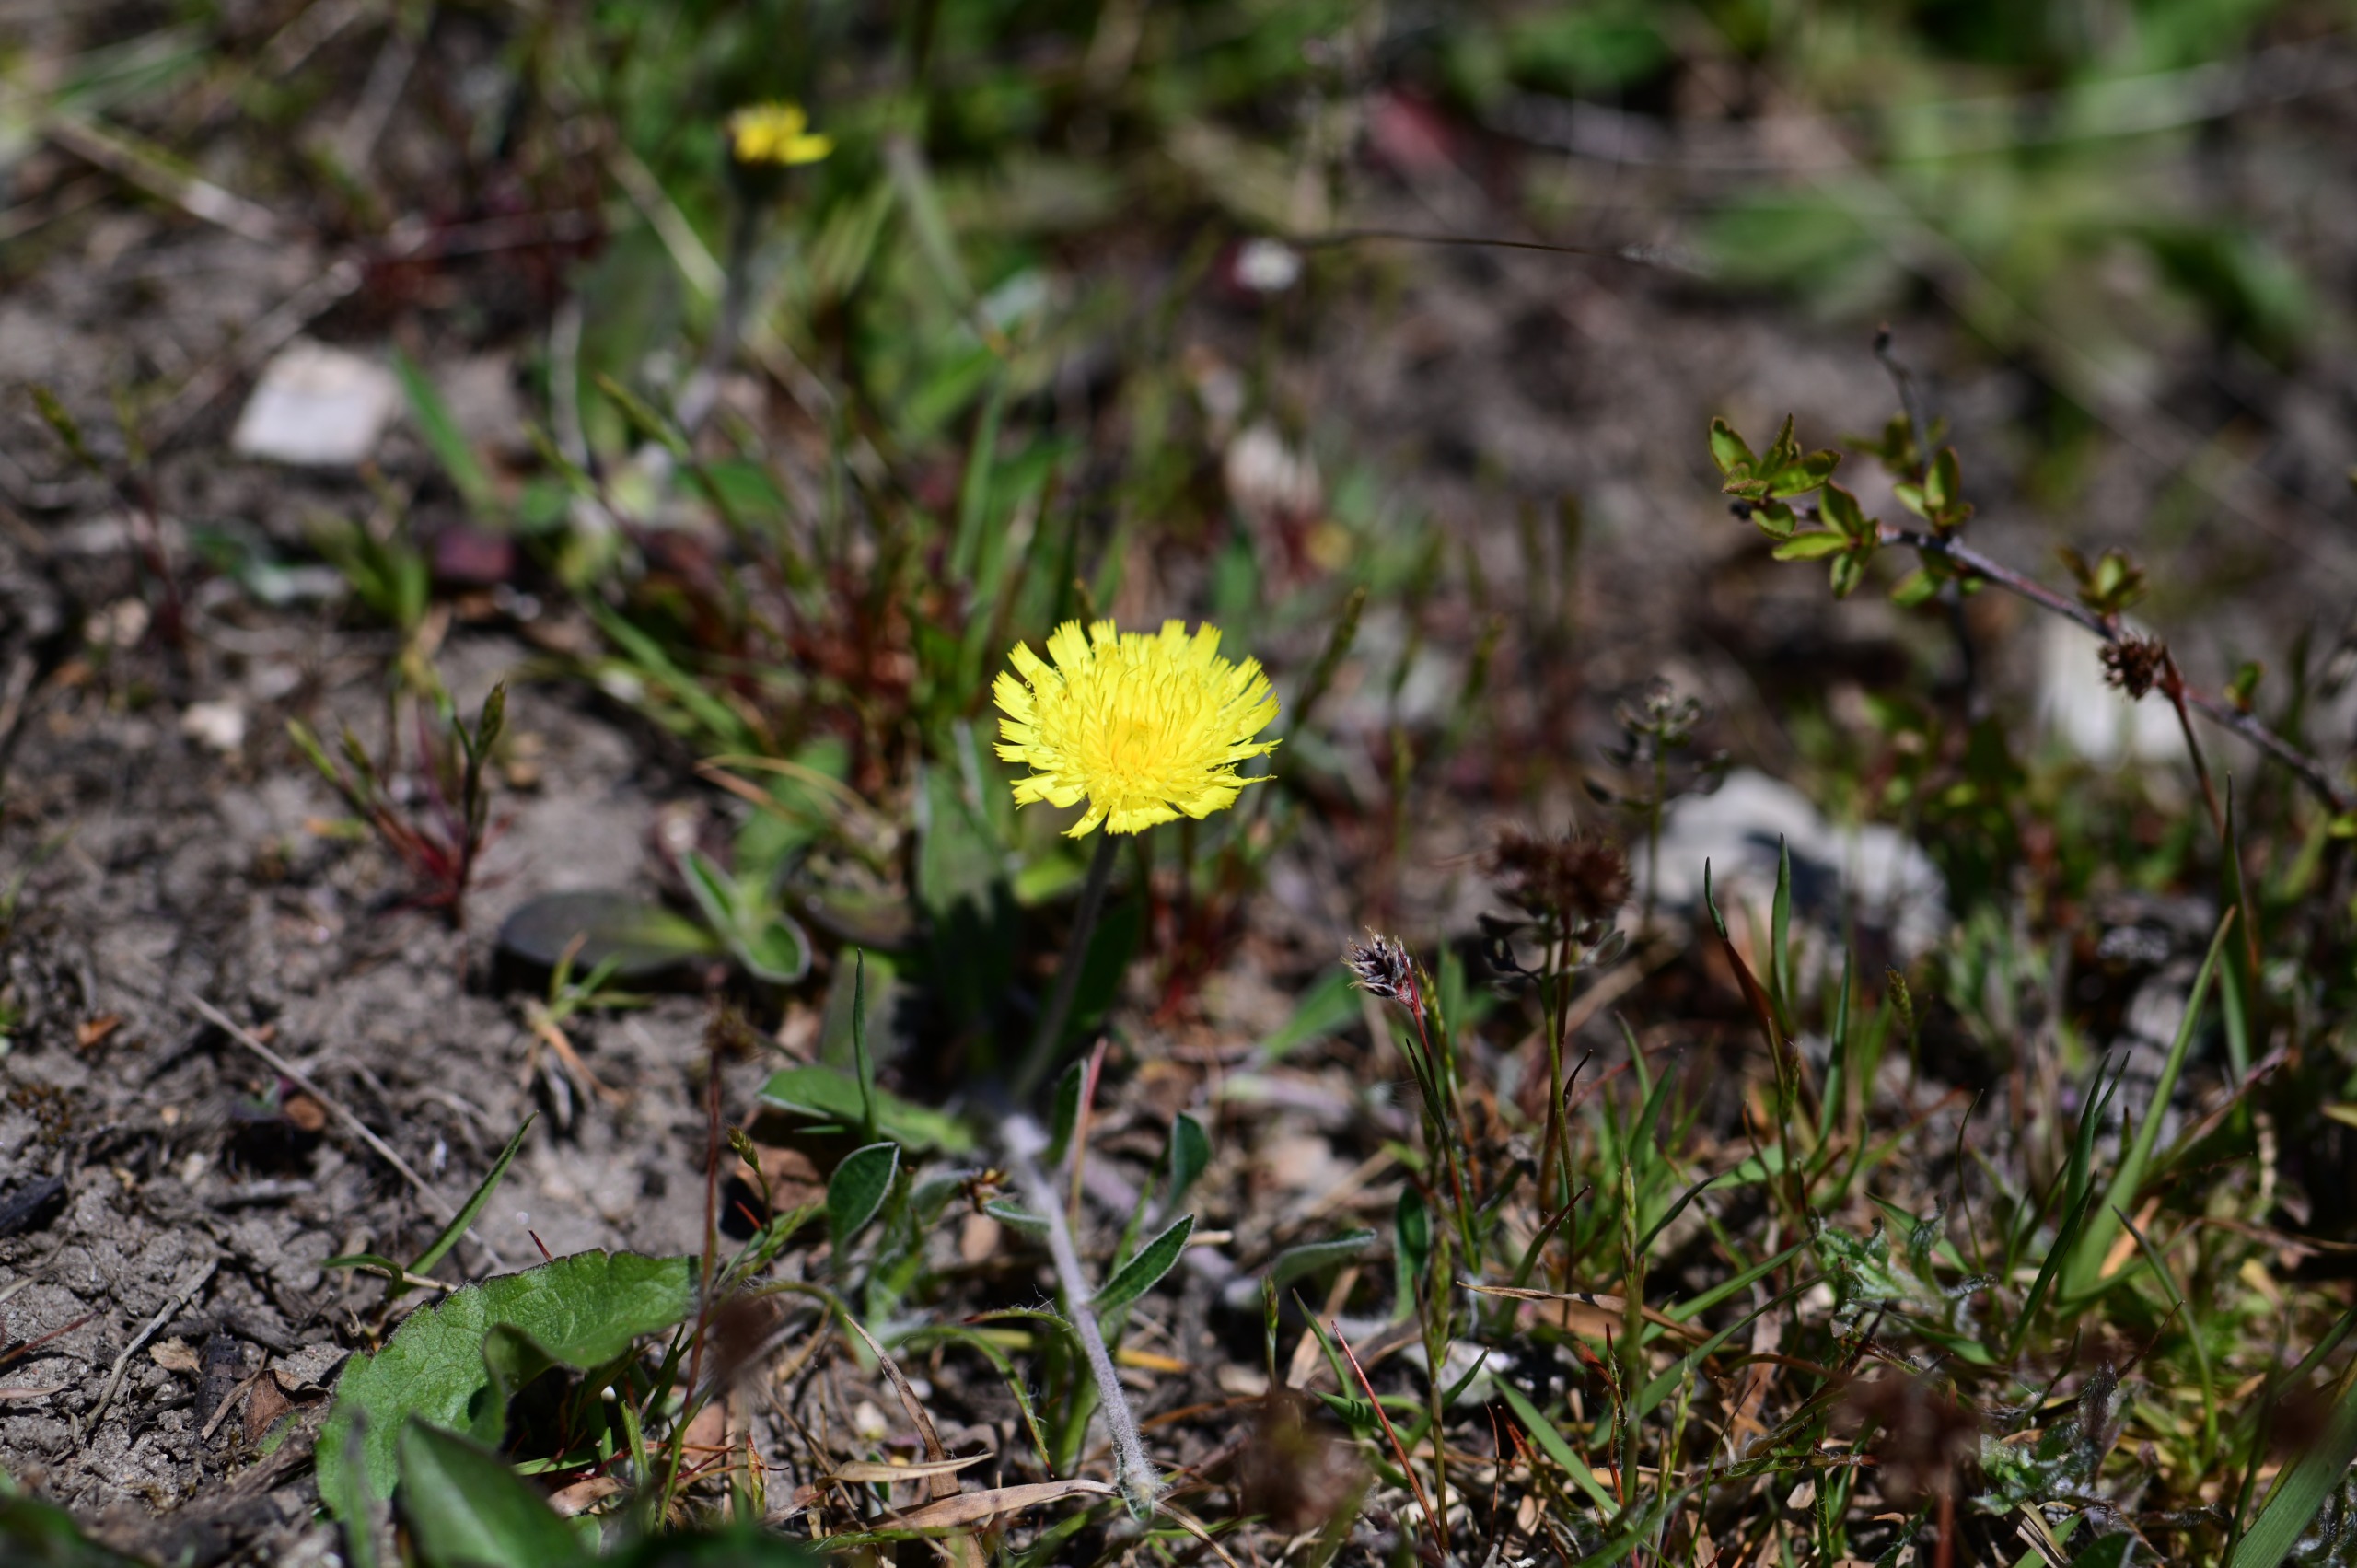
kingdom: Plantae
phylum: Tracheophyta
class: Magnoliopsida
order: Asterales
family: Asteraceae
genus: Pilosella
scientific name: Pilosella officinarum
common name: Håret høgeurt
